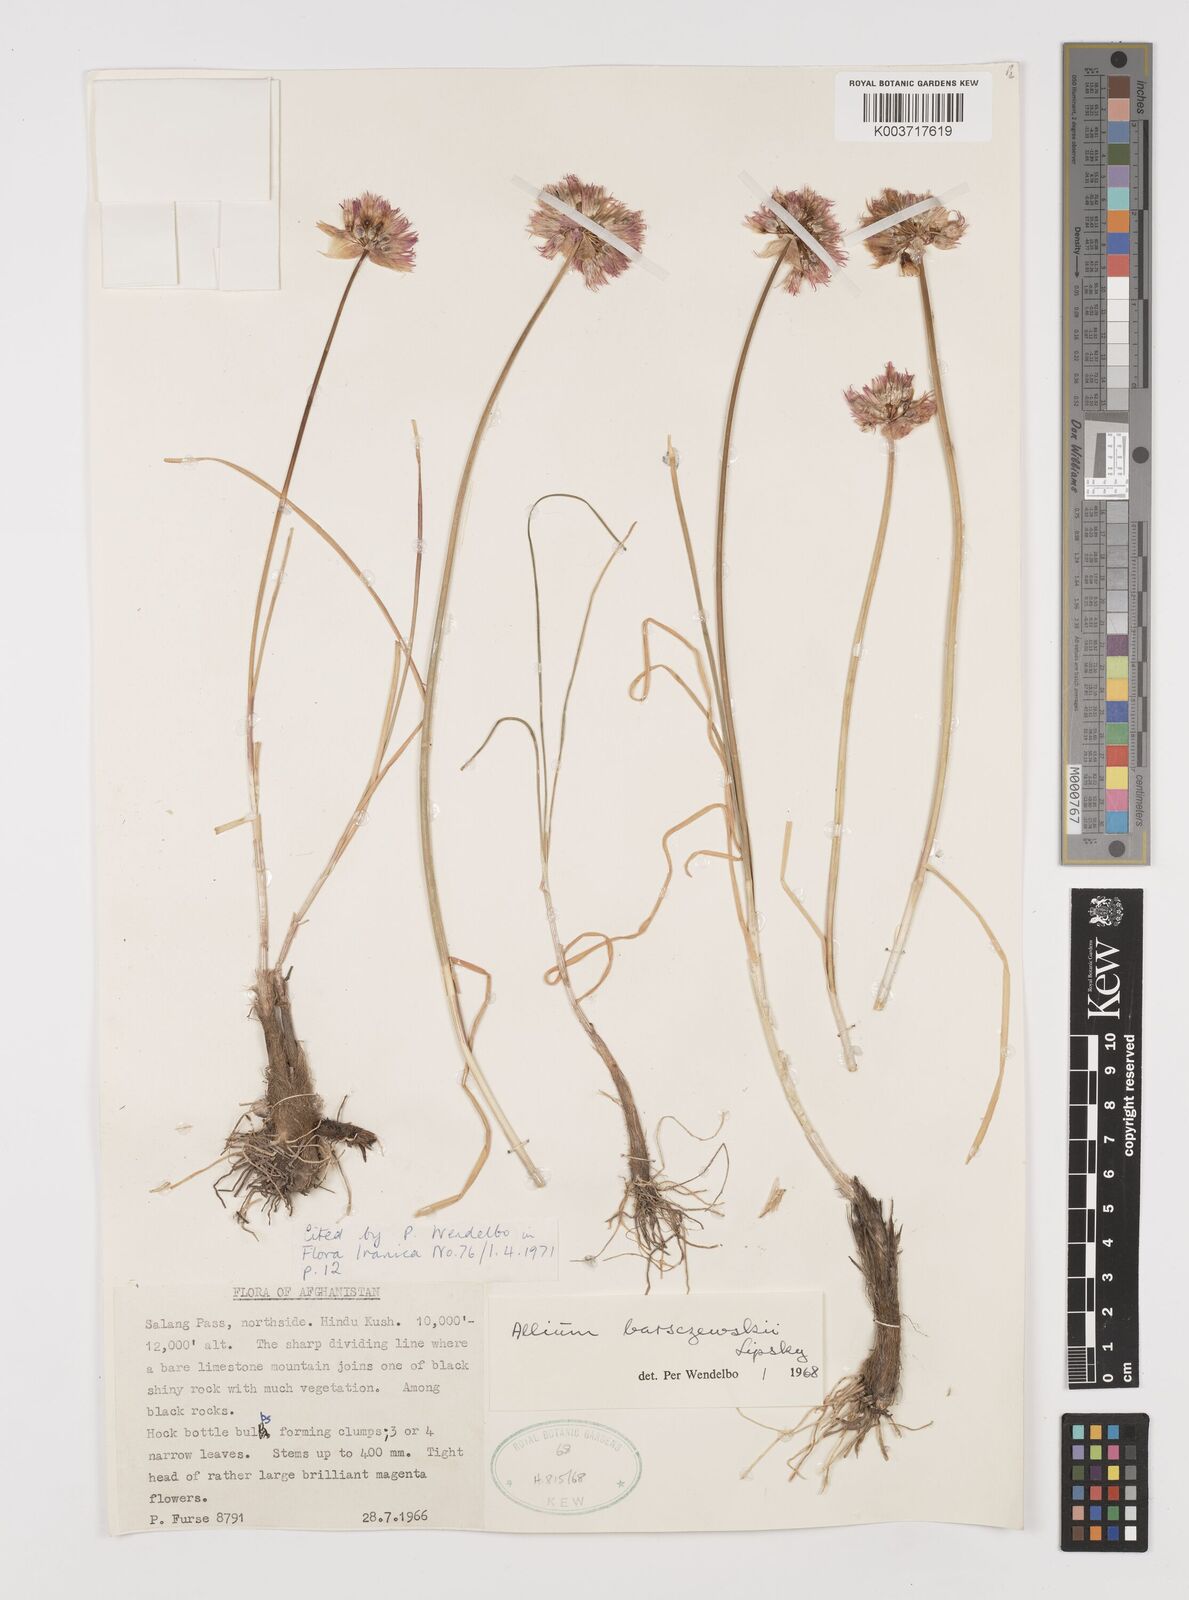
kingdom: Plantae
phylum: Tracheophyta
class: Liliopsida
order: Asparagales
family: Amaryllidaceae
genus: Allium
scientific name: Allium barsczewskii
